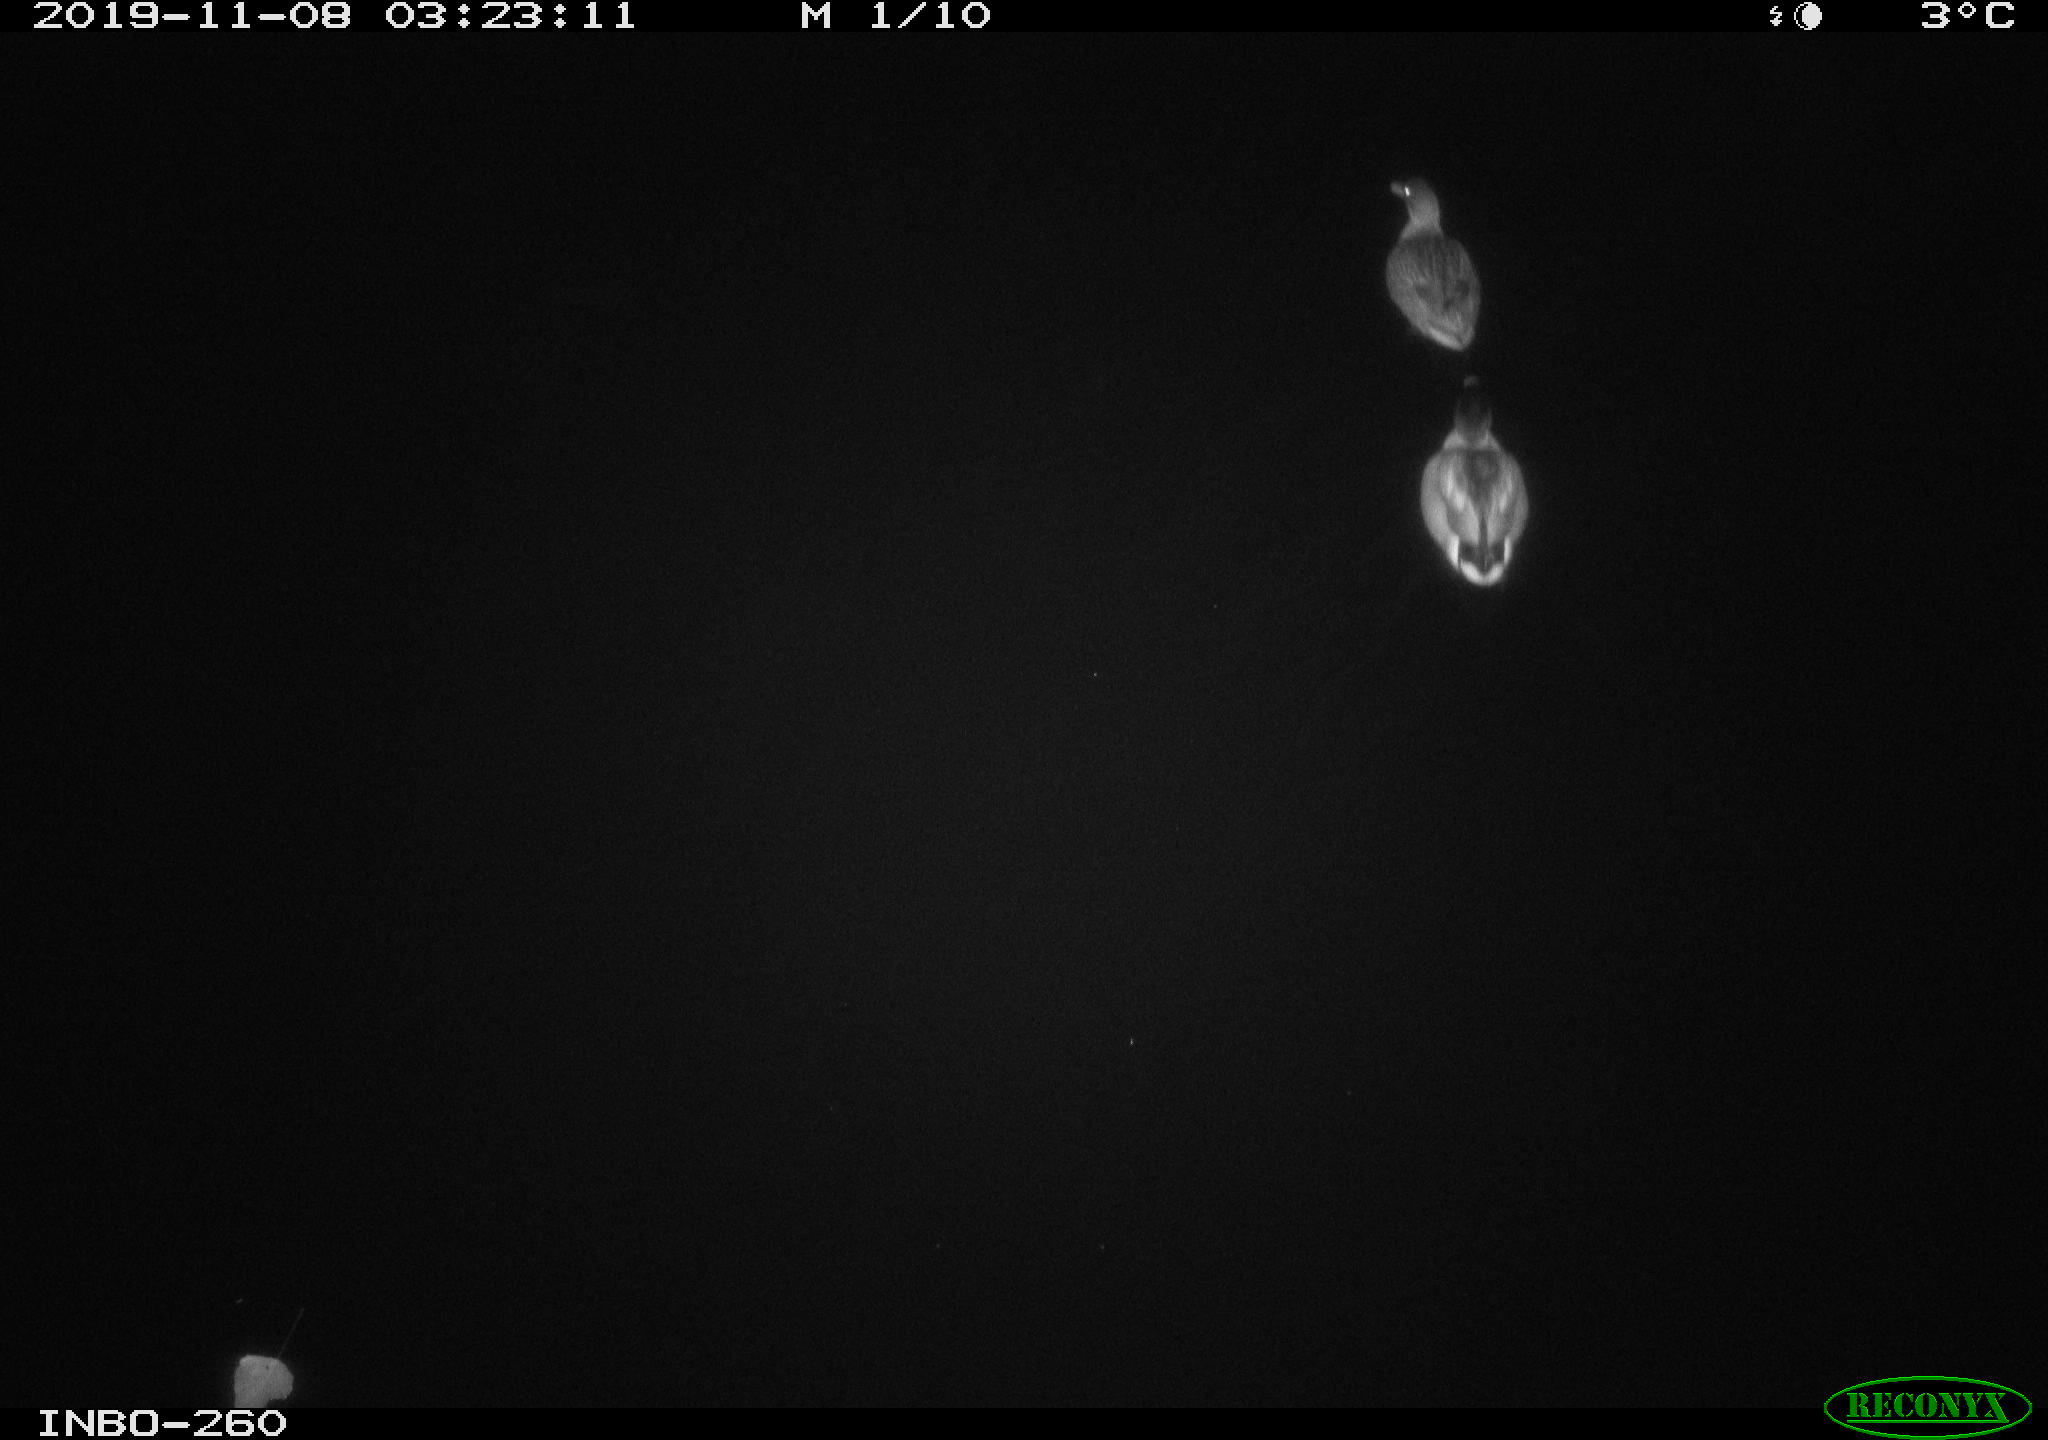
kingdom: Animalia
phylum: Chordata
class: Aves
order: Anseriformes
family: Anatidae
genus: Anas
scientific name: Anas platyrhynchos
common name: Mallard
